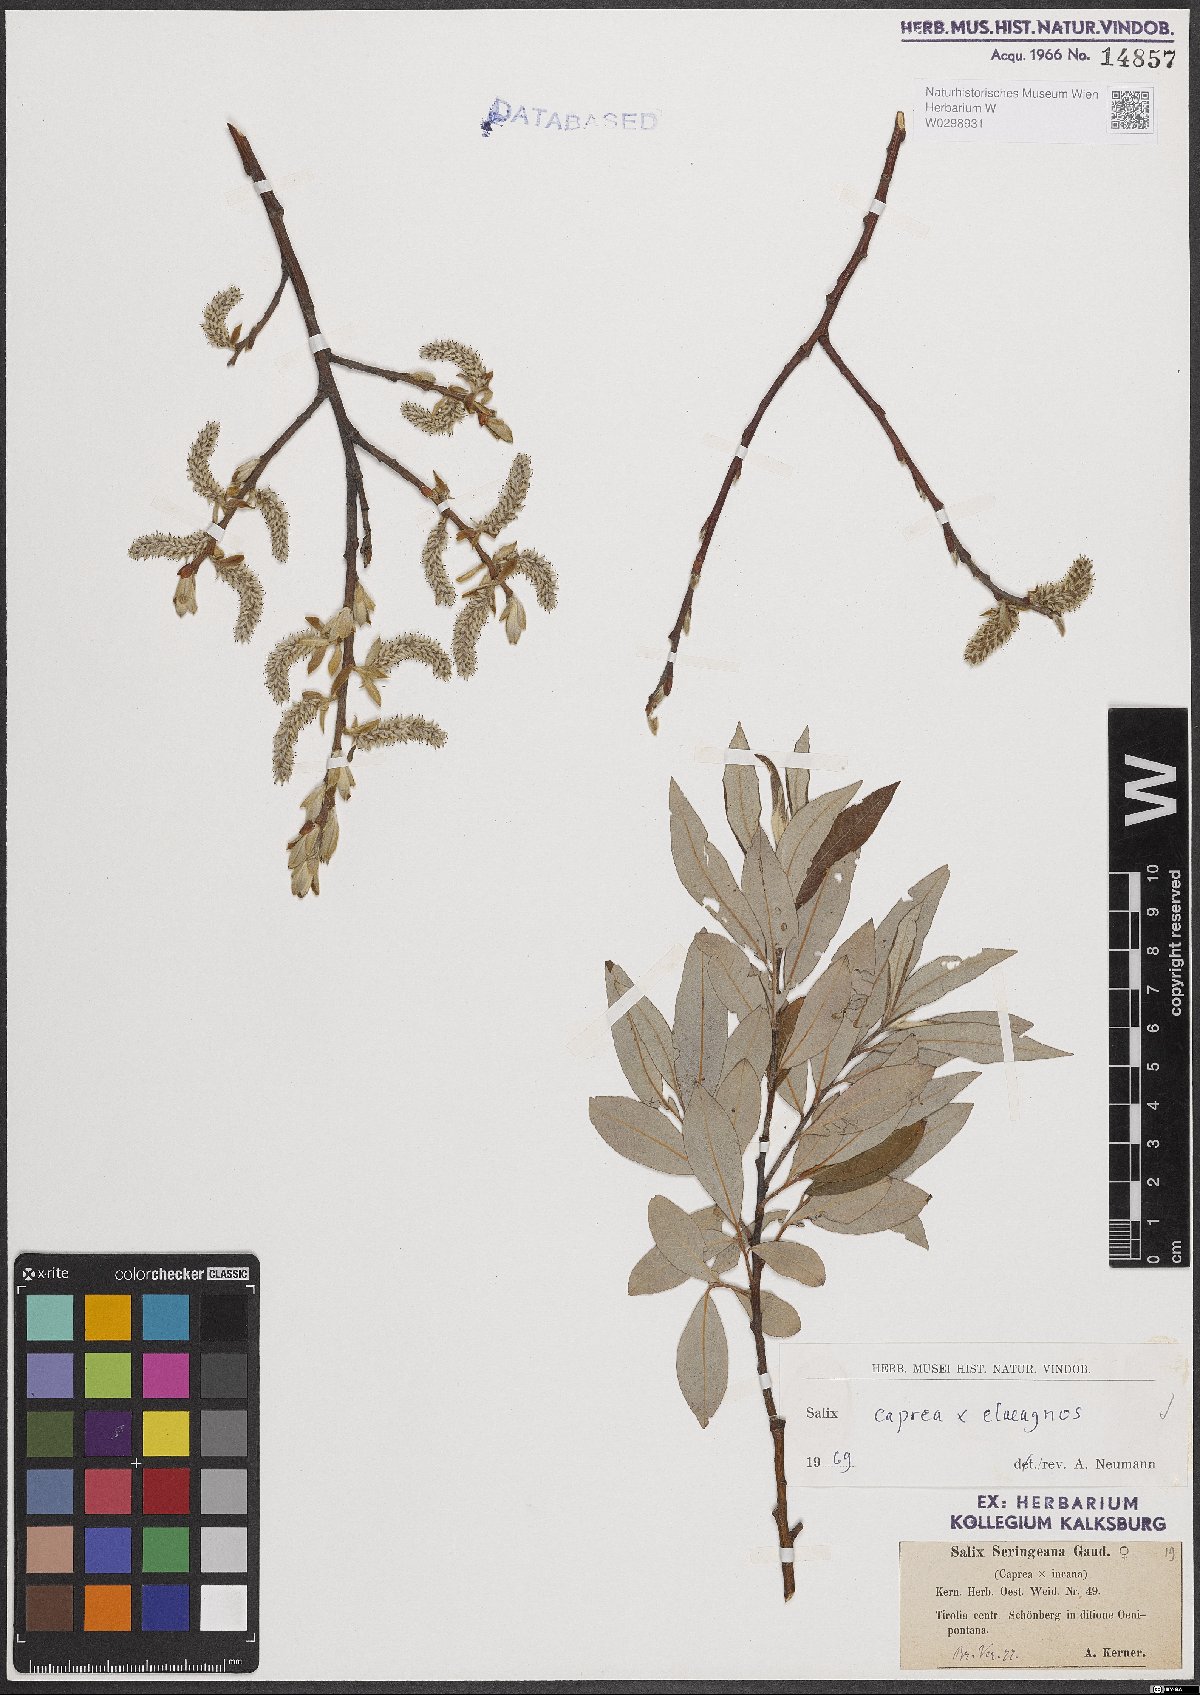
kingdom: Plantae
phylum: Tracheophyta
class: Magnoliopsida
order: Malpighiales
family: Salicaceae
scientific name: Salicaceae
